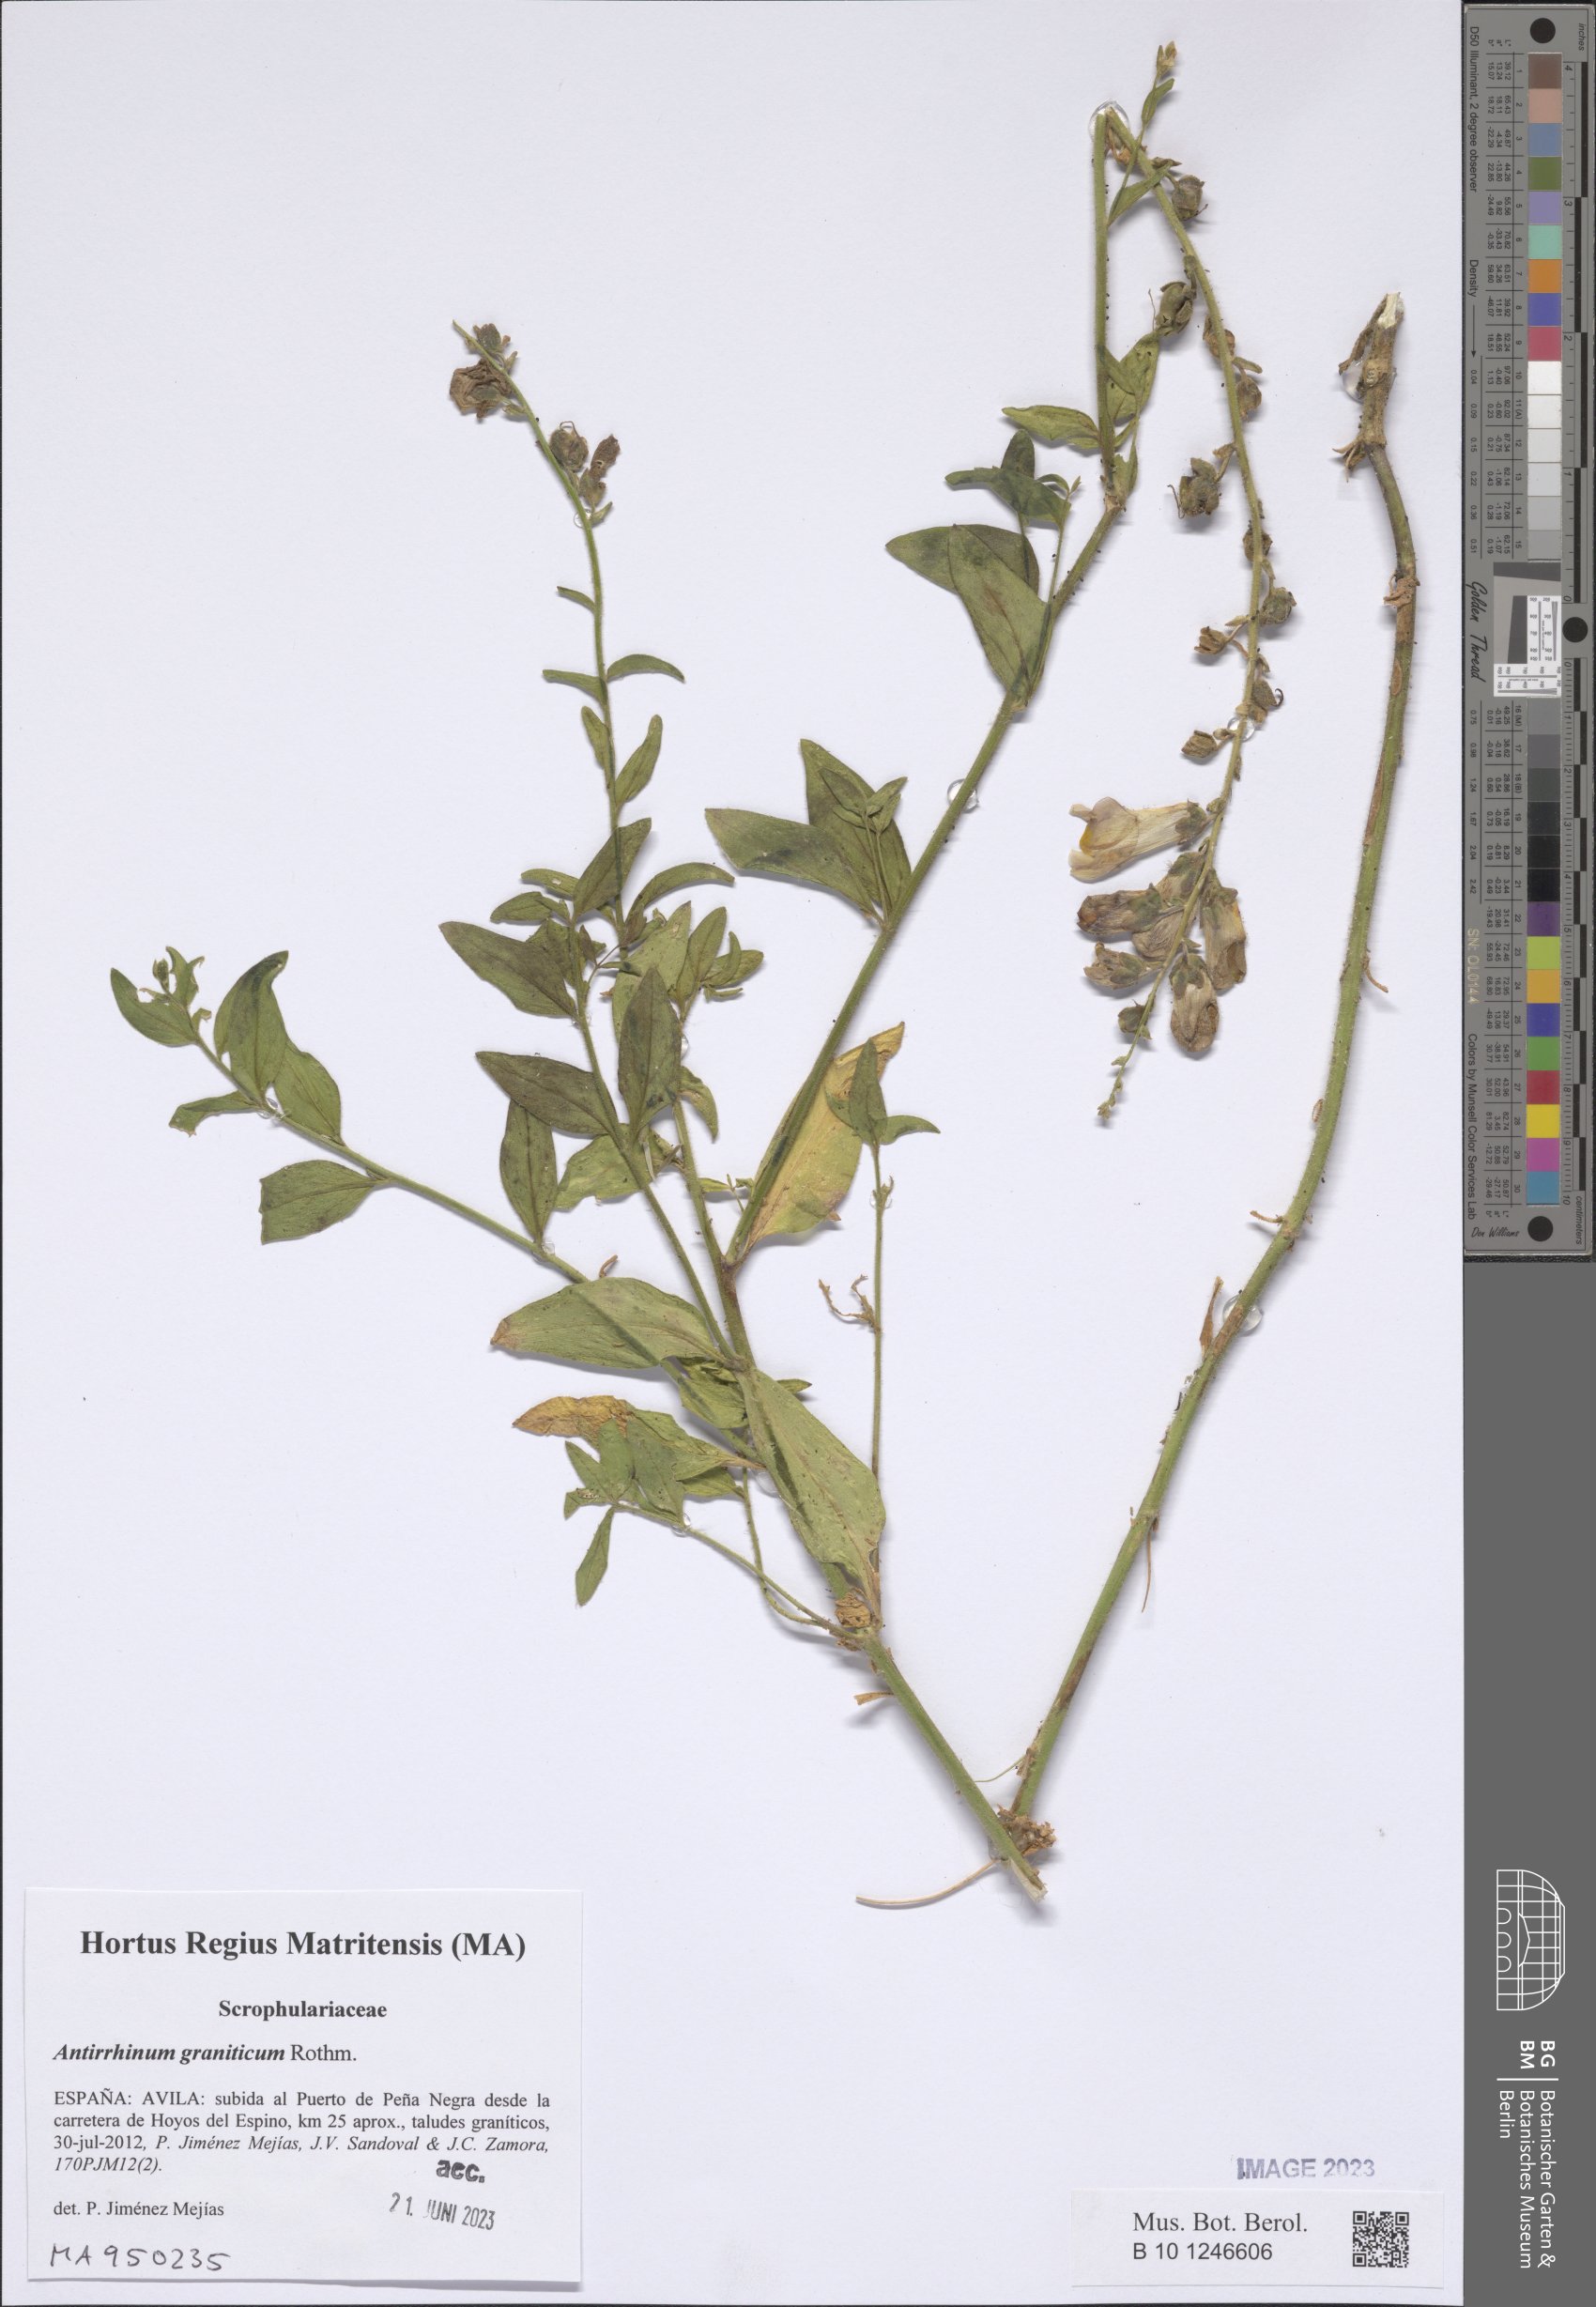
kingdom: Plantae
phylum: Tracheophyta
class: Magnoliopsida
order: Lamiales
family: Plantaginaceae
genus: Antirrhinum
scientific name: Antirrhinum graniticum
